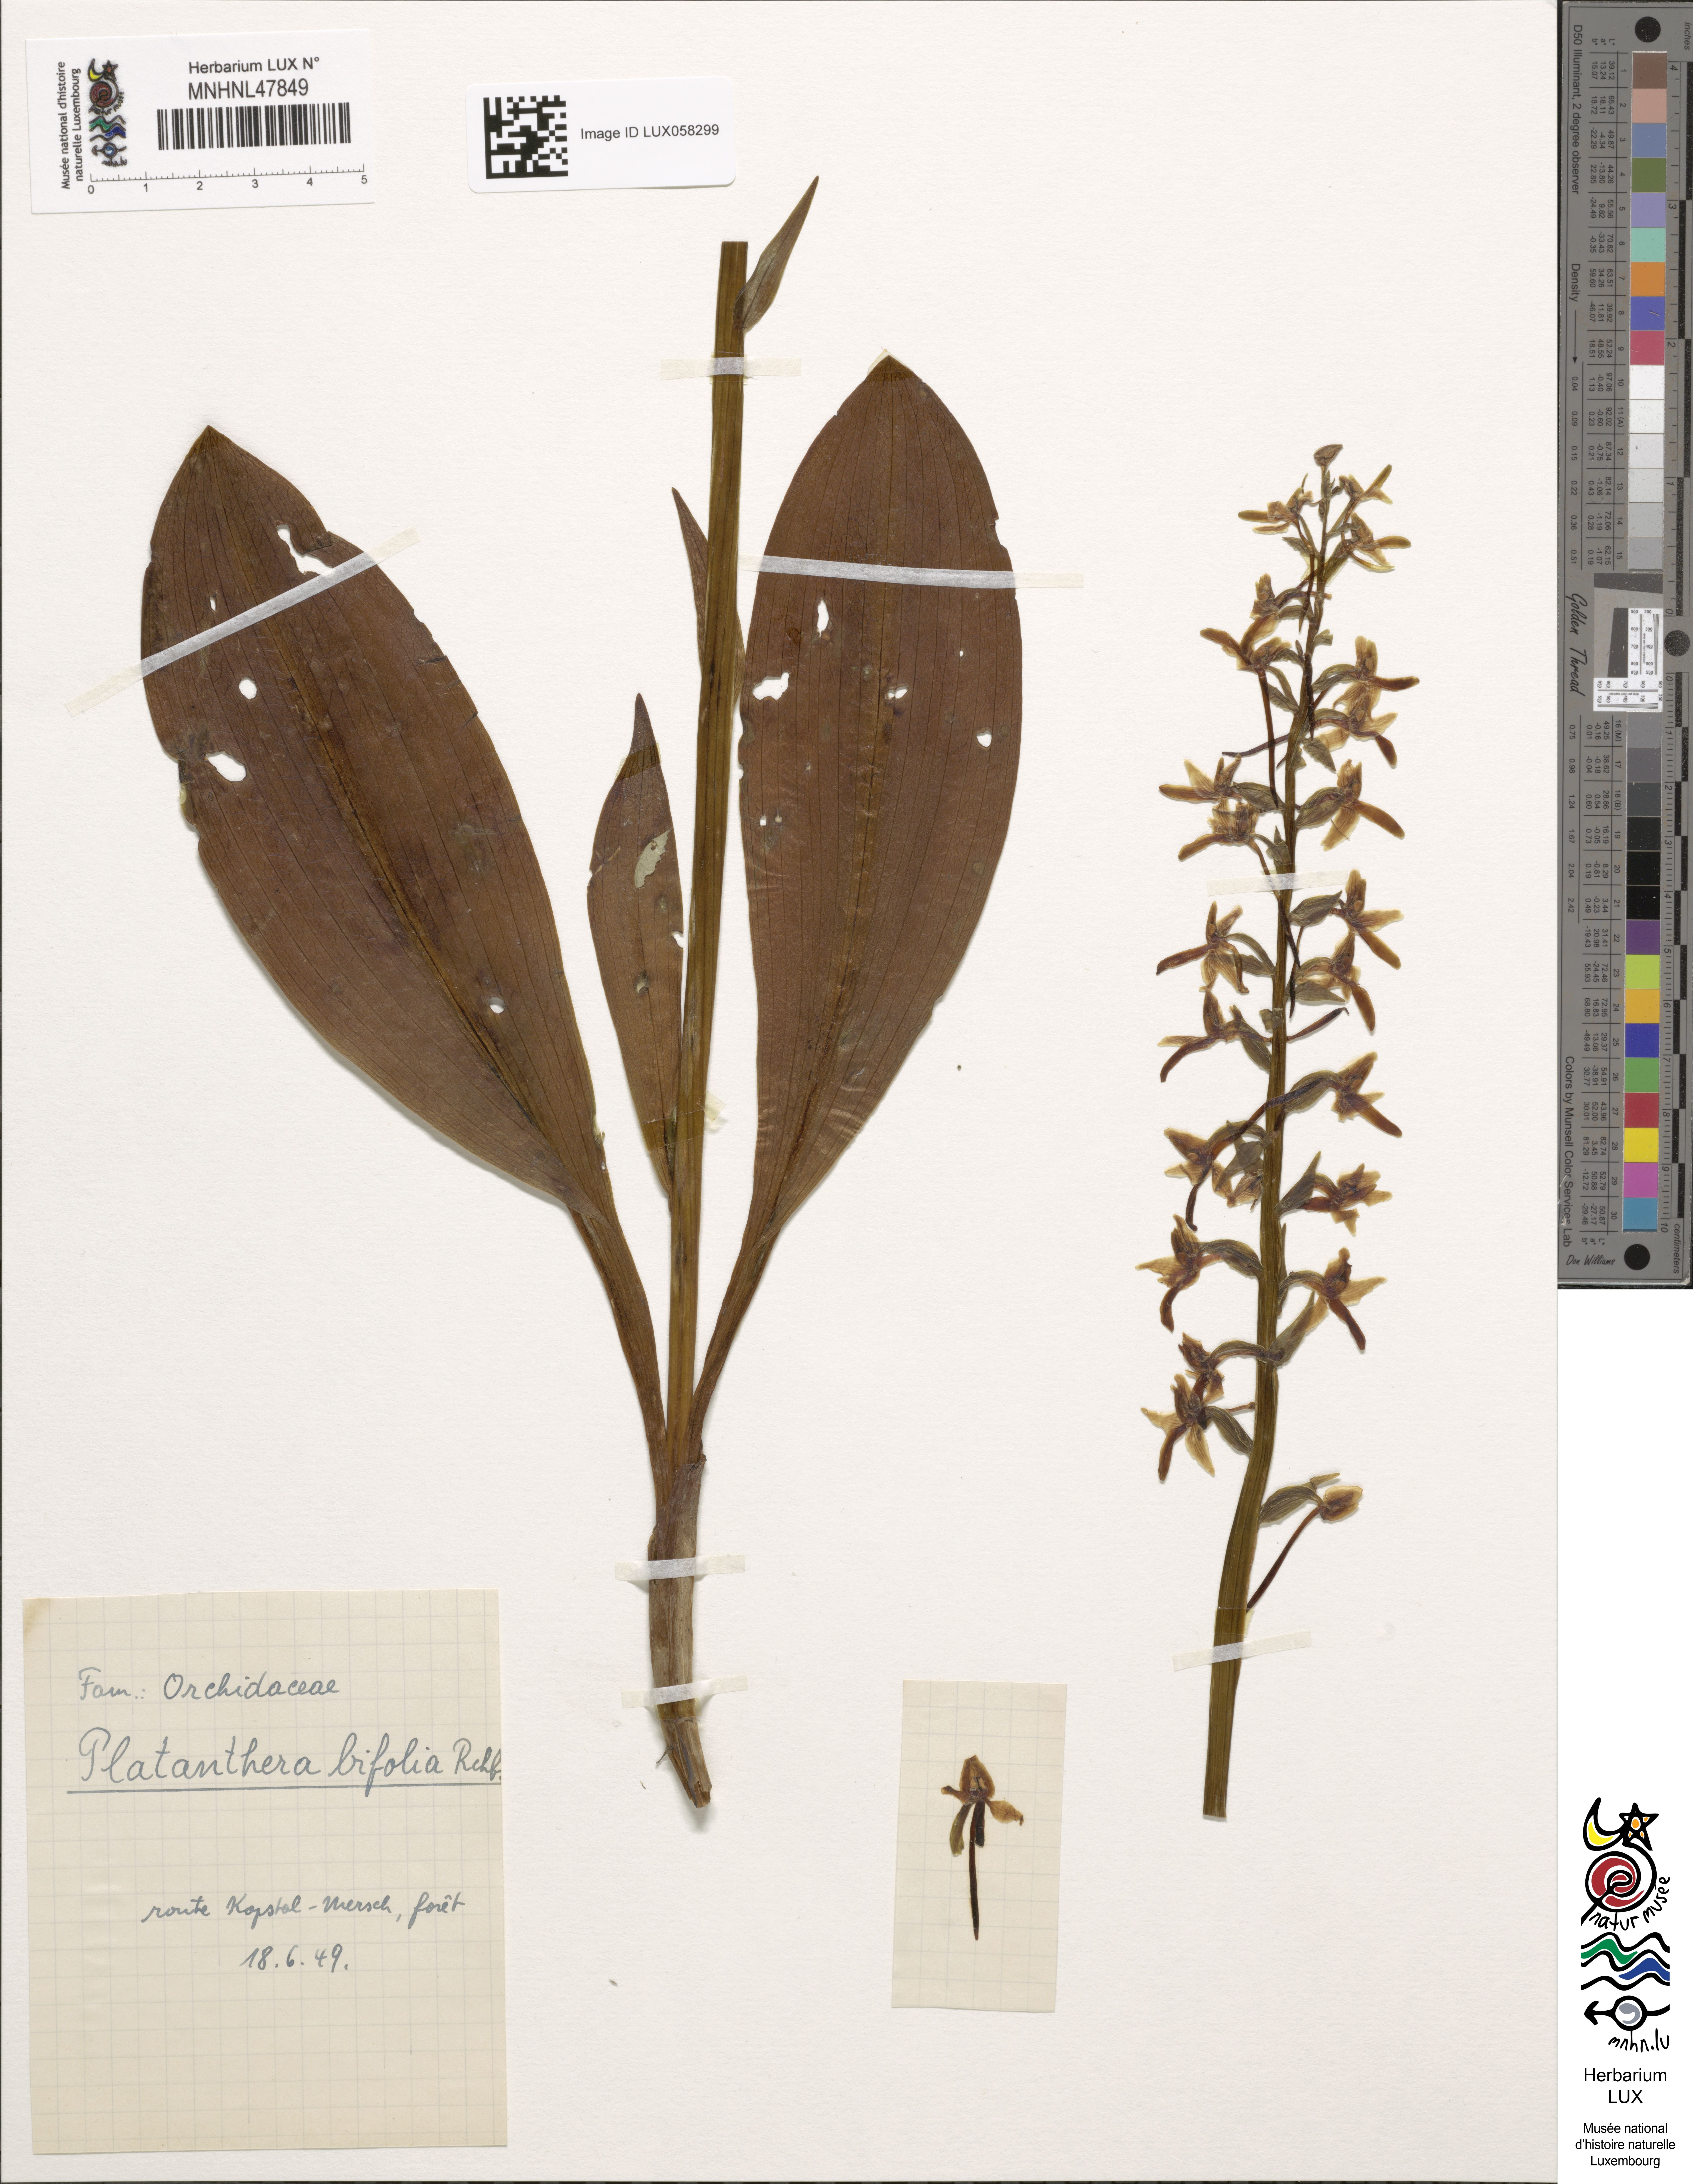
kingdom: Plantae
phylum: Tracheophyta
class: Liliopsida
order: Asparagales
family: Orchidaceae
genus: Platanthera
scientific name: Platanthera bifolia
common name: Lesser butterfly-orchid
